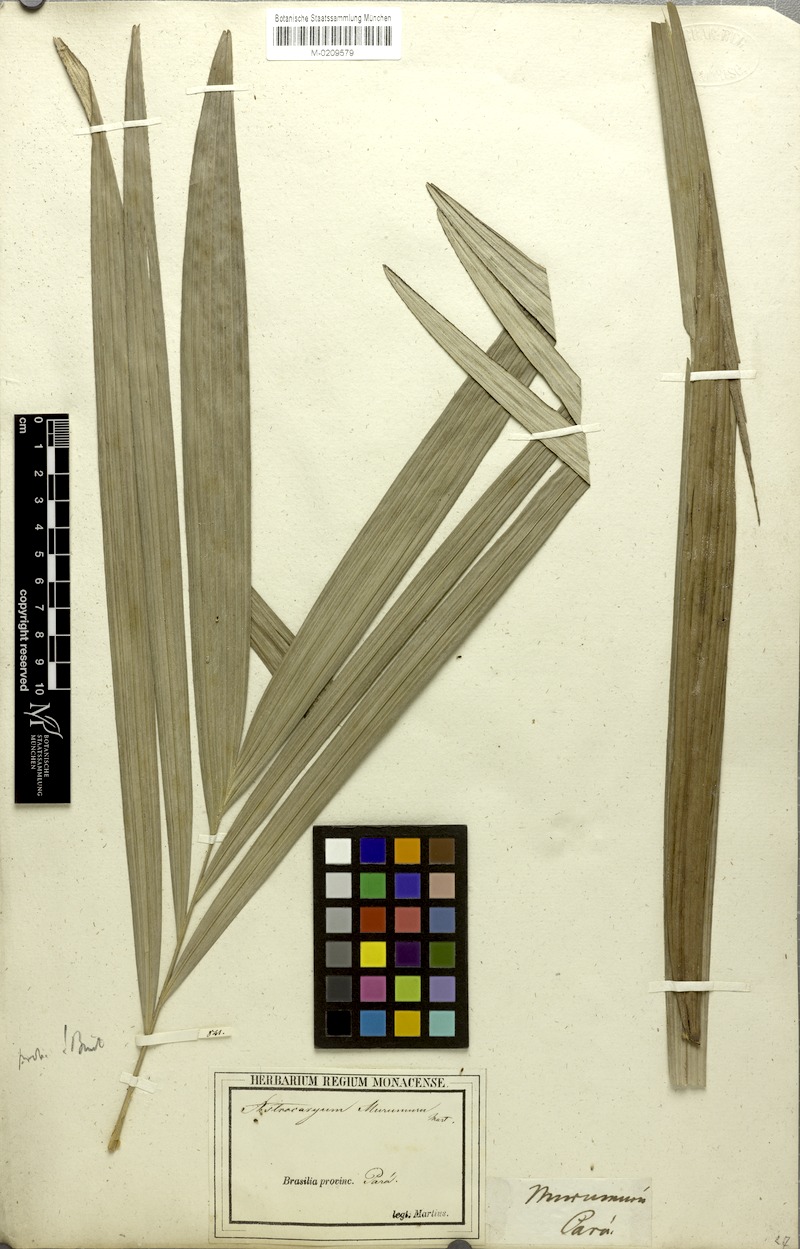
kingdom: Plantae
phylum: Tracheophyta
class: Liliopsida
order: Arecales
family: Arecaceae
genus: Astrocaryum
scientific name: Astrocaryum murumuru
